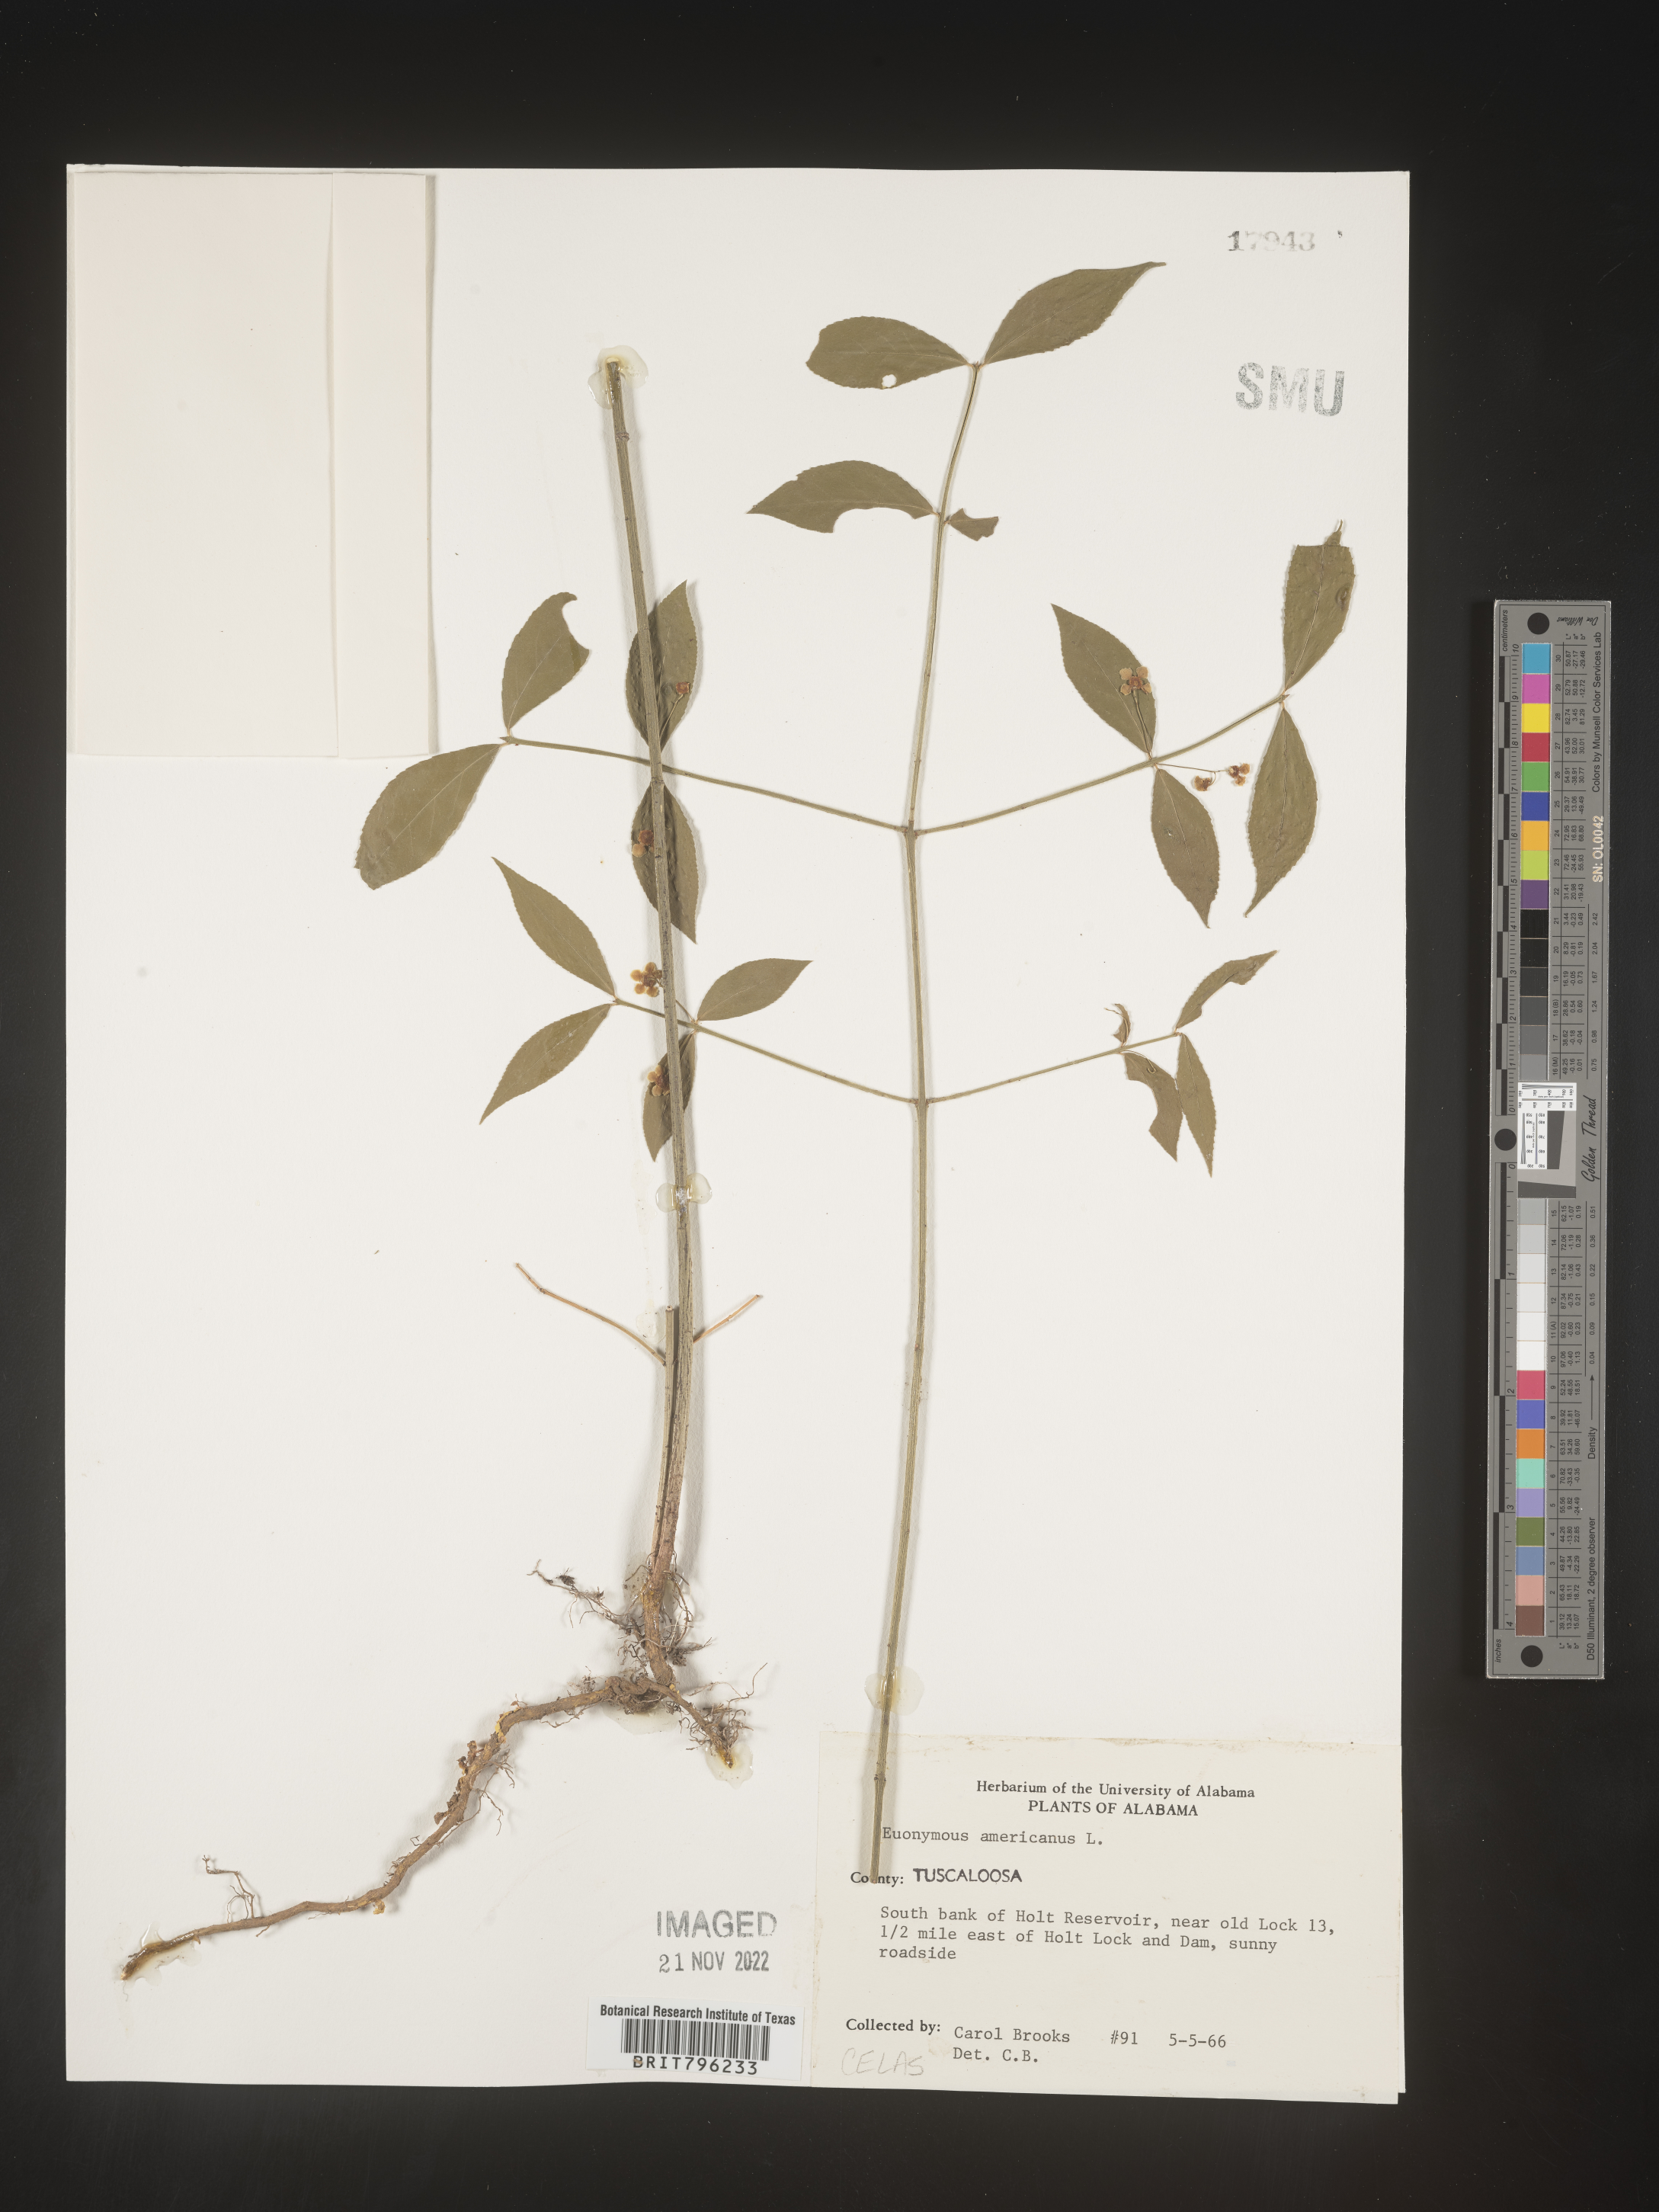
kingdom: Plantae
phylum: Tracheophyta
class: Magnoliopsida
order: Celastrales
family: Celastraceae
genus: Euonymus
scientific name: Euonymus americanus
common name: Bursting-heart
